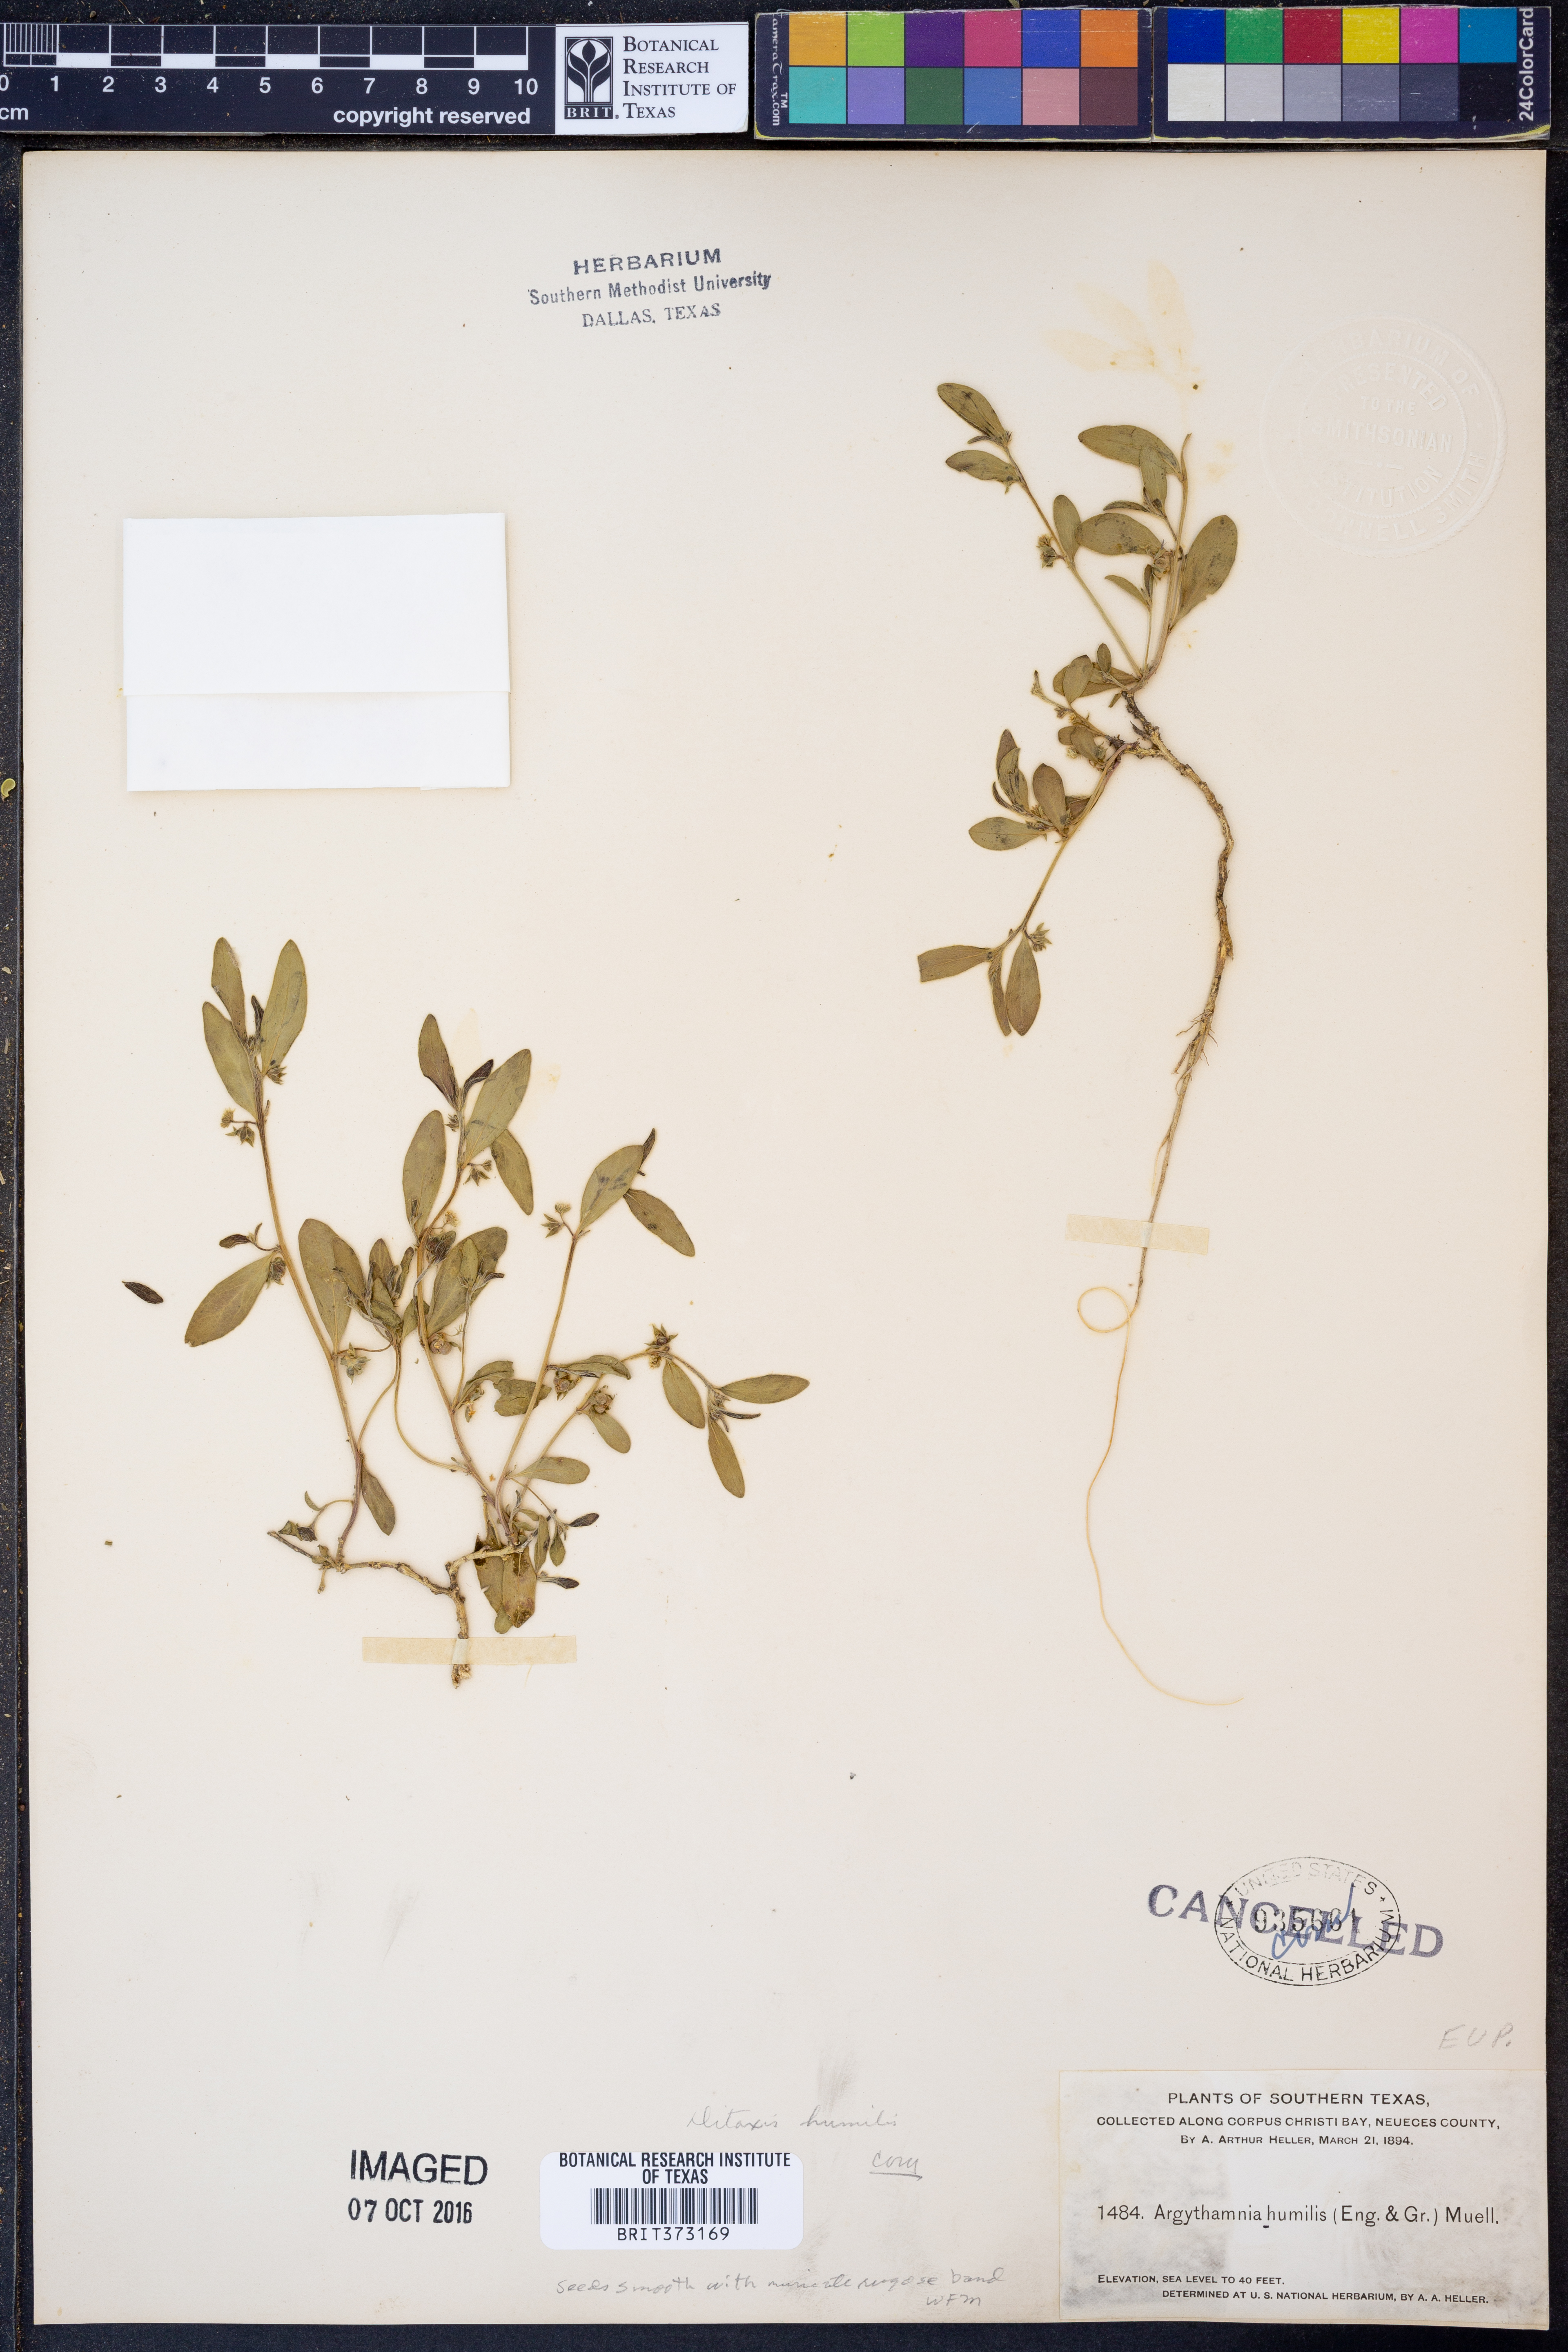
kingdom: Plantae
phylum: Tracheophyta
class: Magnoliopsida
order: Malpighiales
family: Euphorbiaceae
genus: Ditaxis
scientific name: Ditaxis humilis
